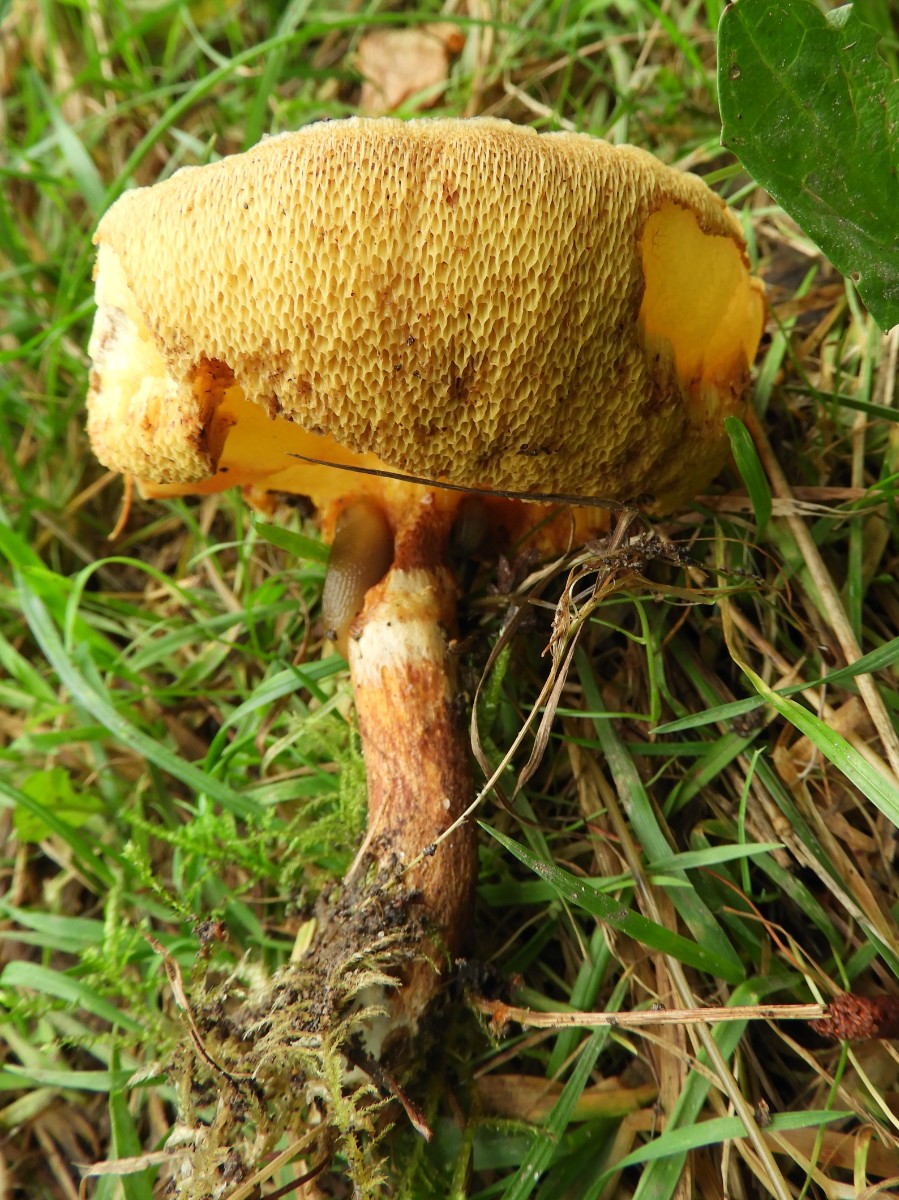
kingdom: Fungi
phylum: Basidiomycota
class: Agaricomycetes
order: Boletales
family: Suillaceae
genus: Suillus
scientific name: Suillus grevillei
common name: lærke-slimrørhat
